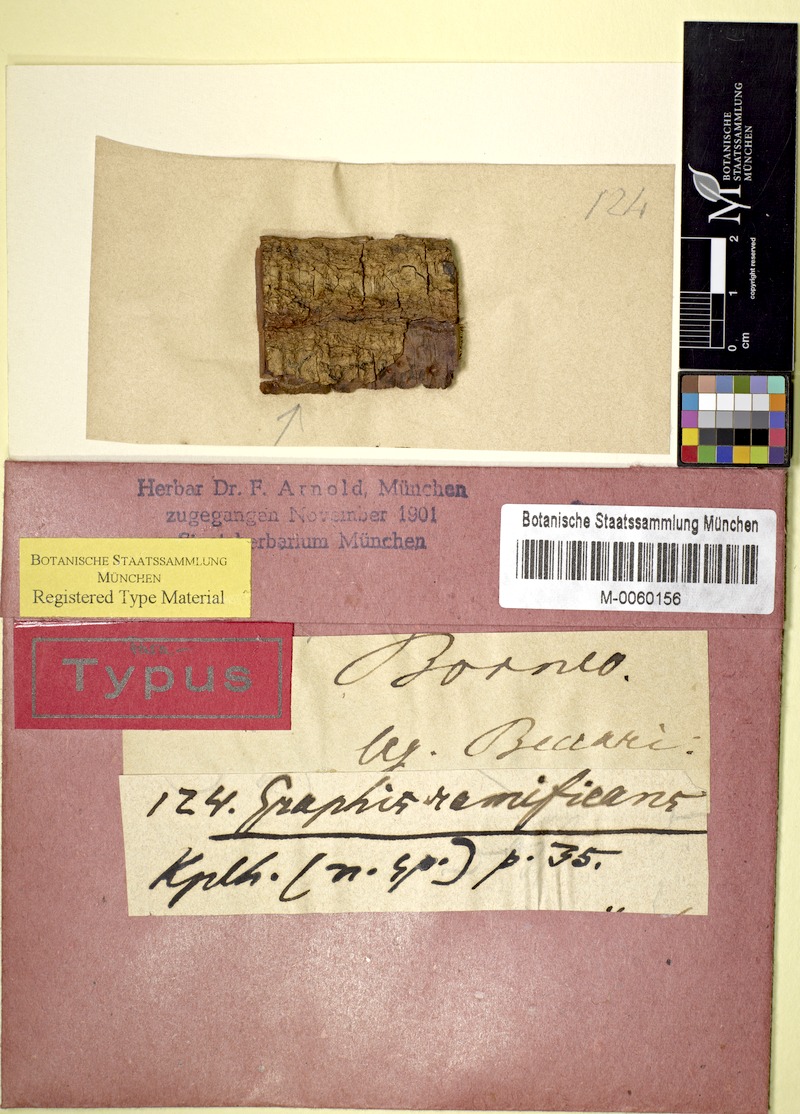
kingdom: Fungi
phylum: Ascomycota
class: Lecanoromycetes
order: Ostropales
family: Graphidaceae
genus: Sarcographa
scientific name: Sarcographa ramificans
